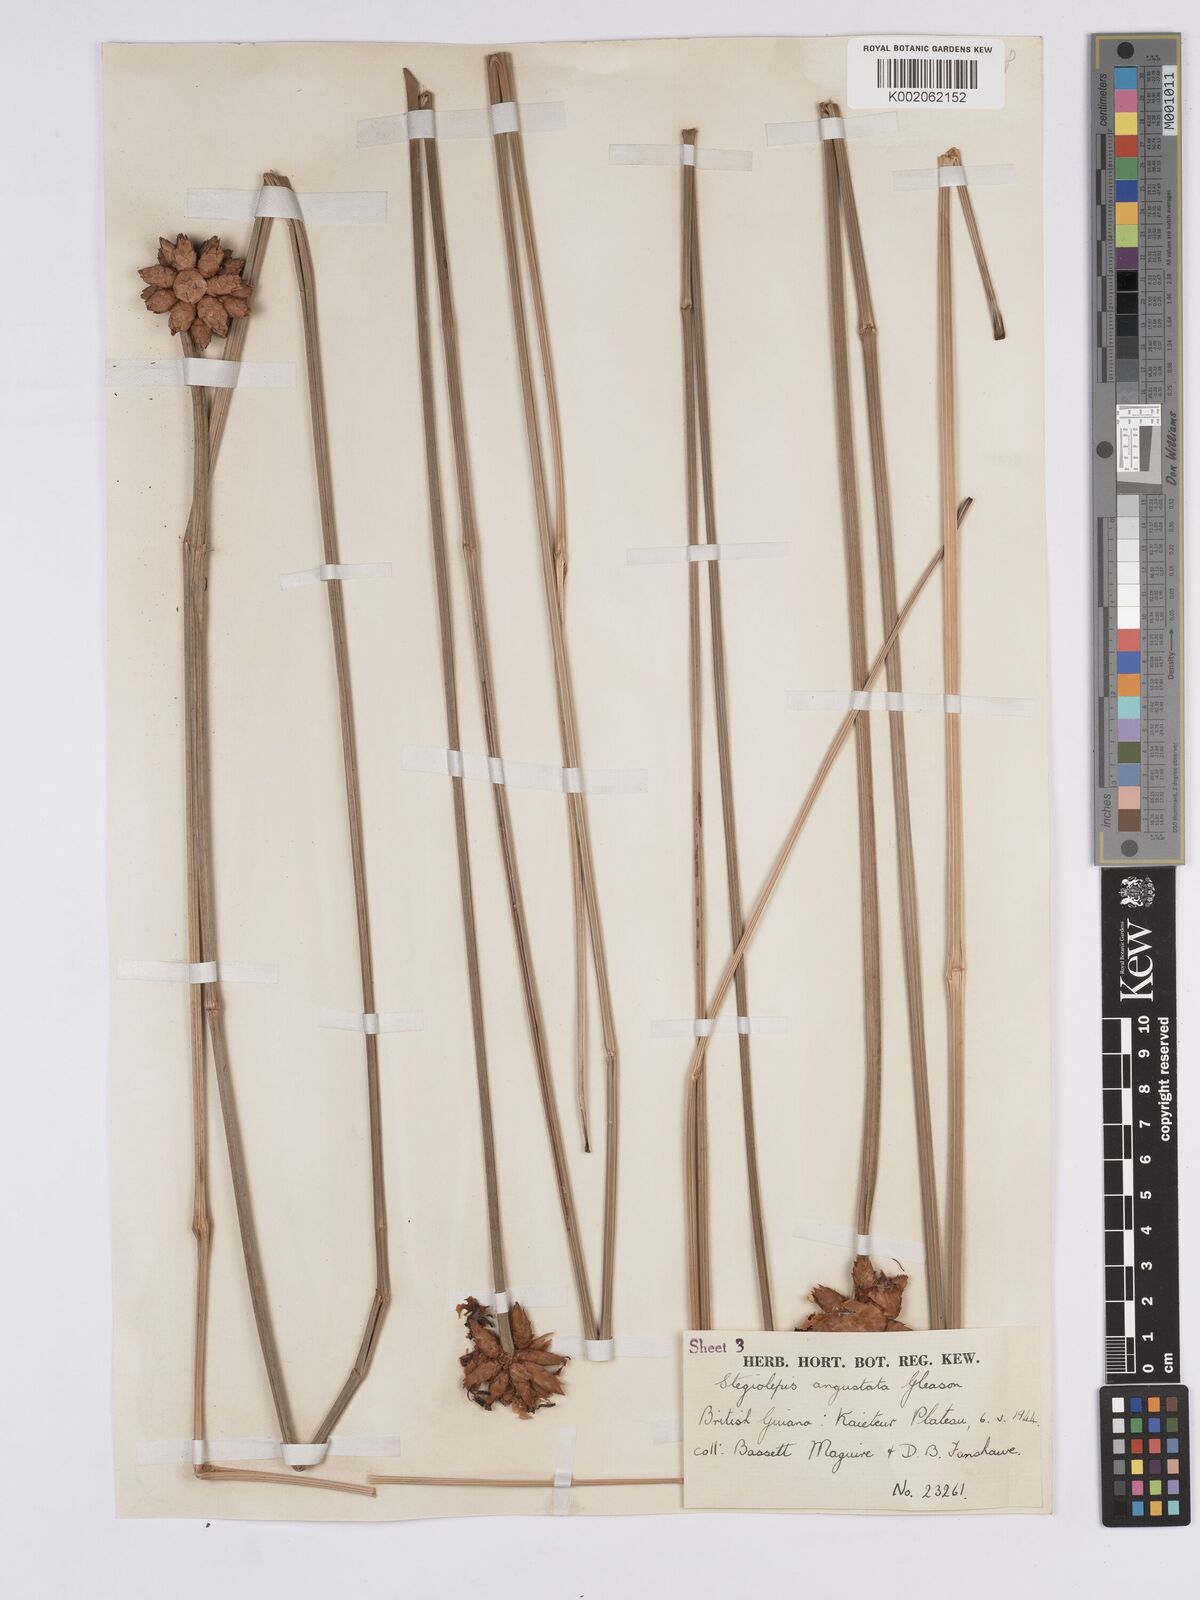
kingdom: Plantae
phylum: Tracheophyta
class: Liliopsida
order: Poales
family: Rapateaceae
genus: Stegolepis
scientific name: Stegolepis angustata
